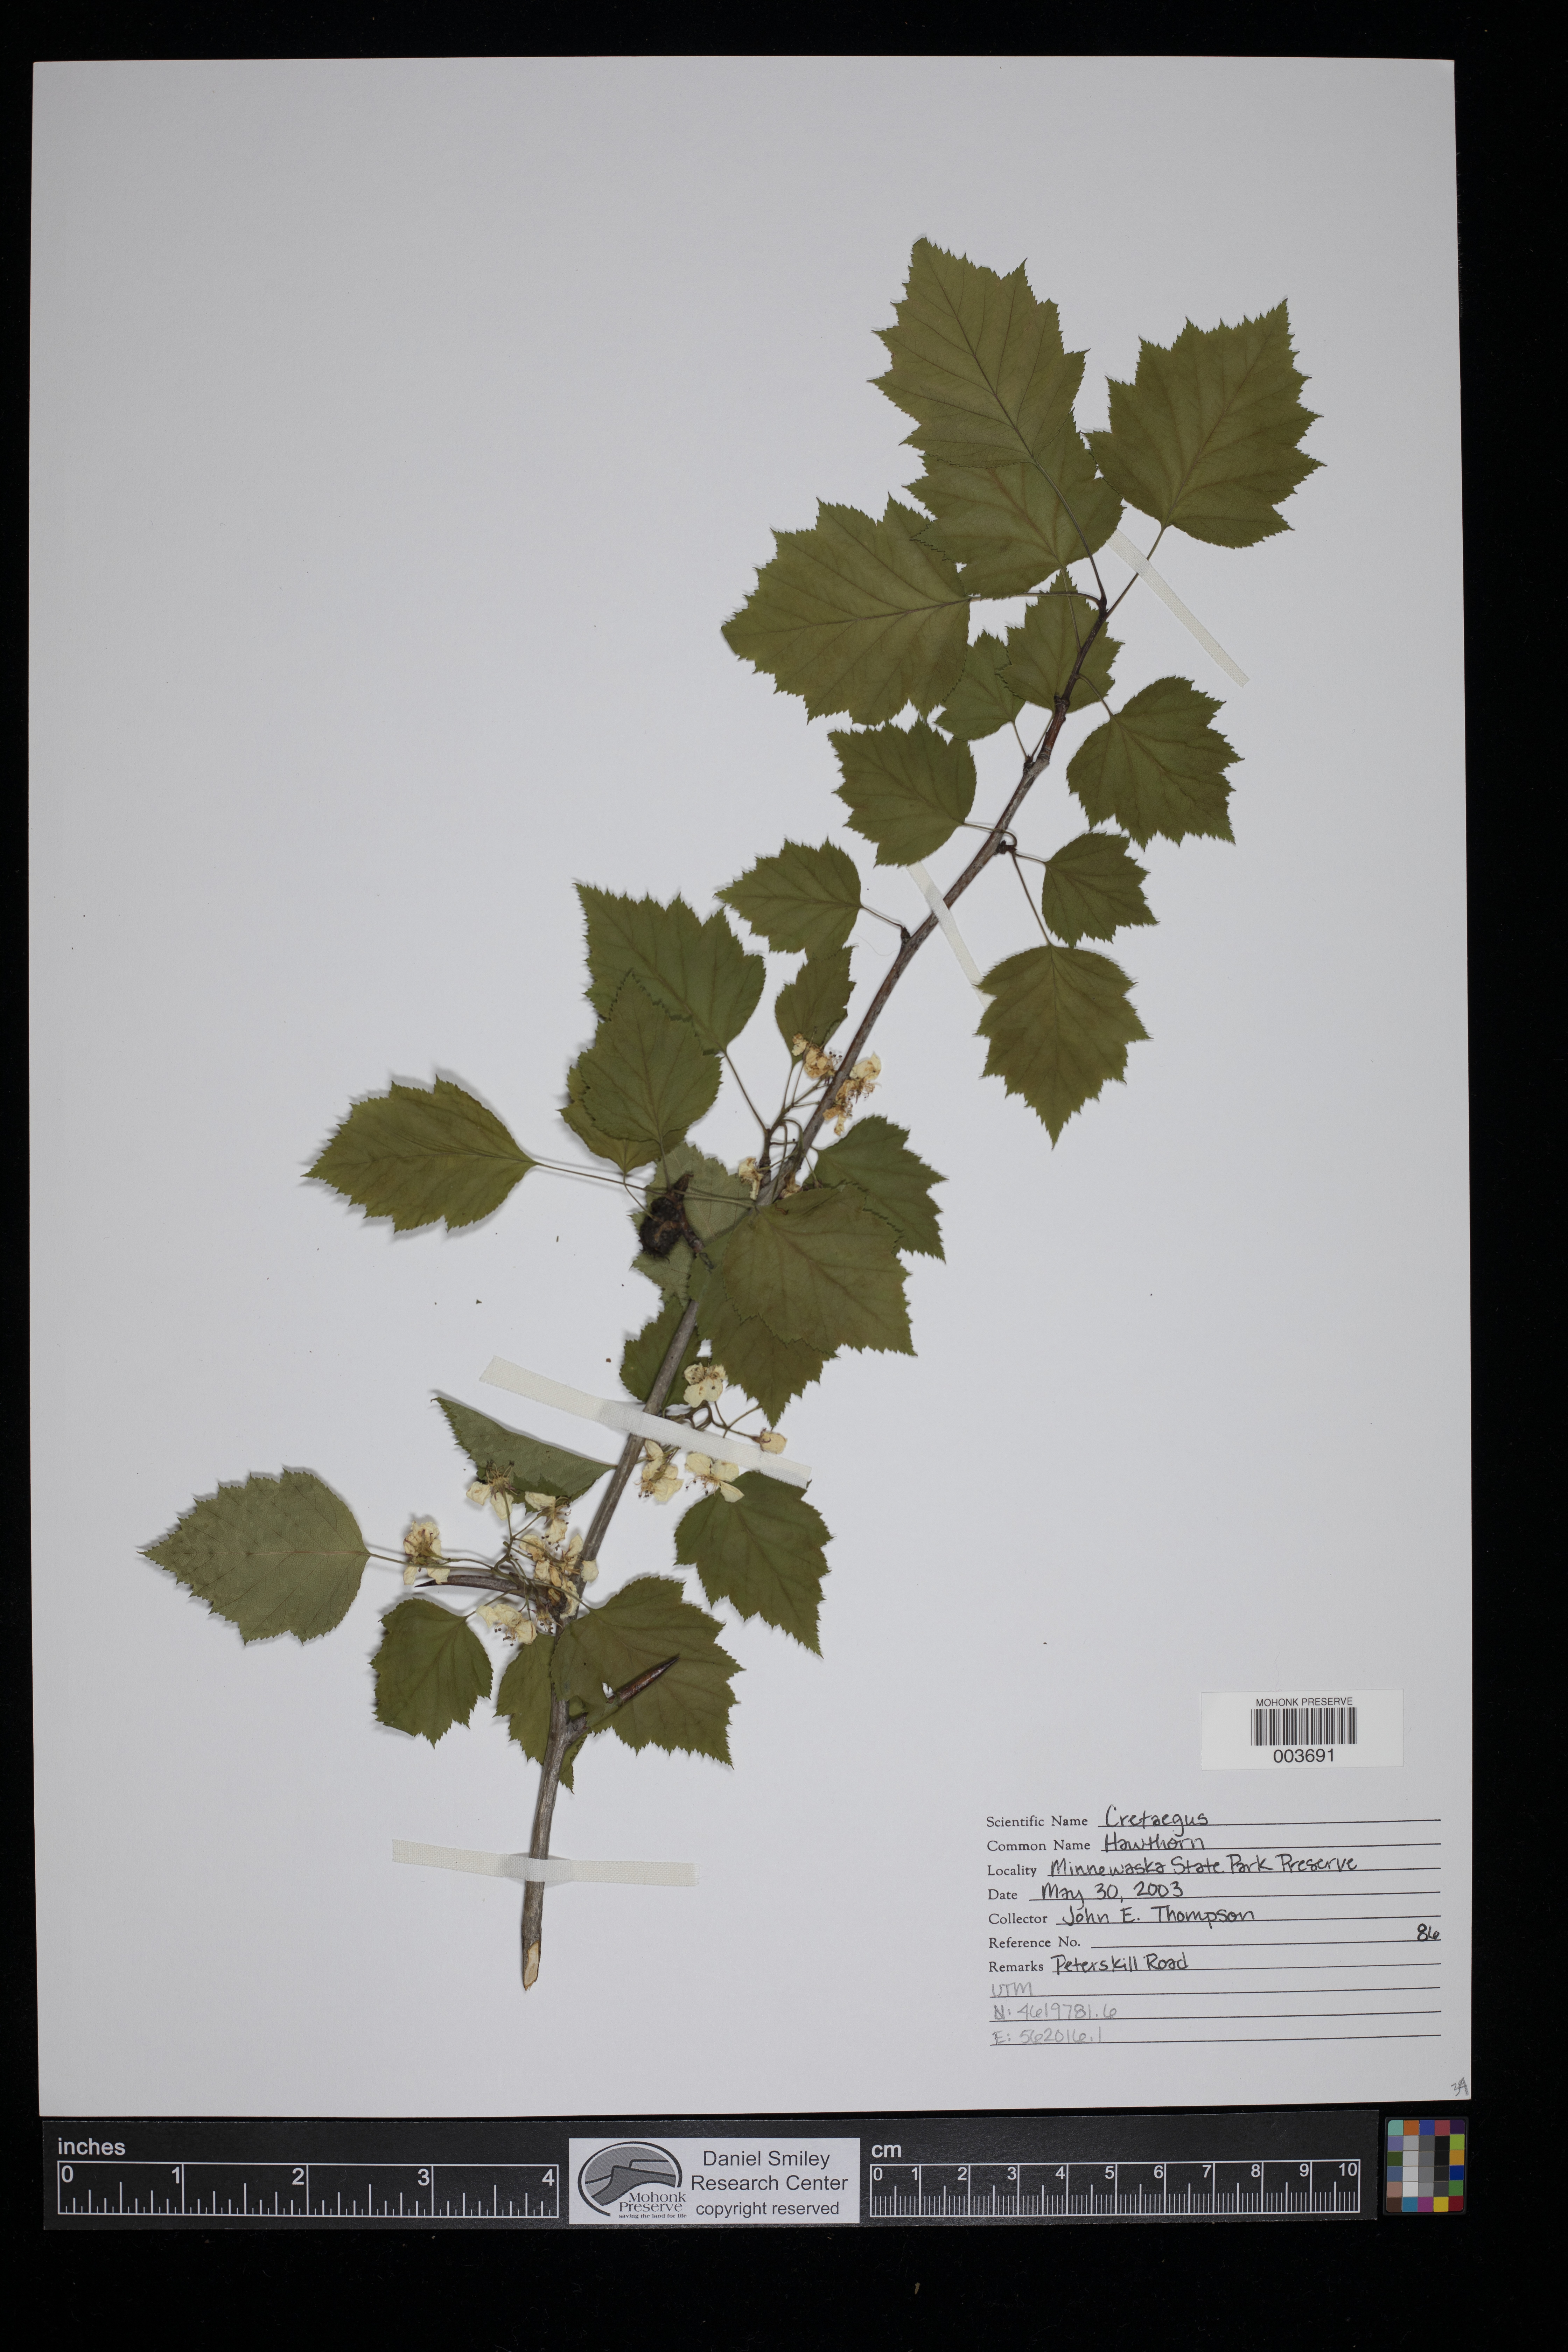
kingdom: Plantae
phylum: Tracheophyta
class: Magnoliopsida
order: Rosales
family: Rosaceae
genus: Crataegus
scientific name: Crataegus
